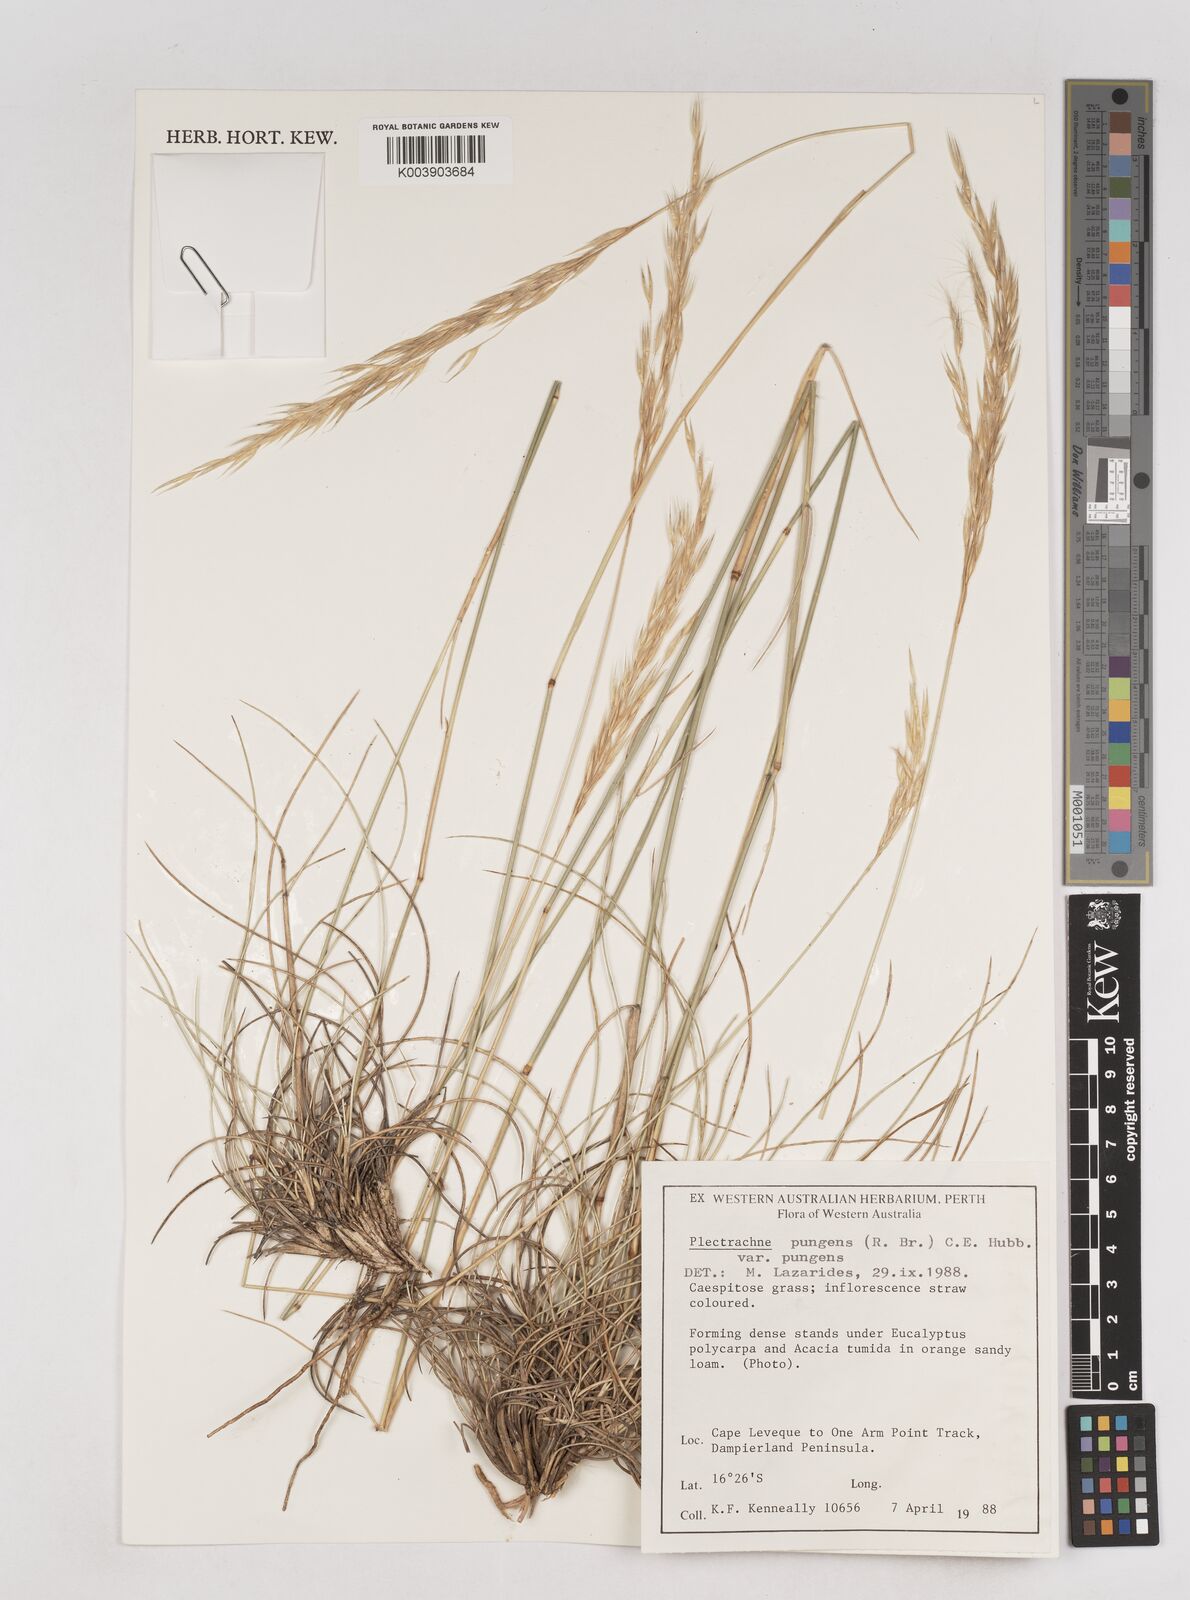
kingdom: Plantae
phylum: Tracheophyta
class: Liliopsida
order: Poales
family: Poaceae
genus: Triodia
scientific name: Triodia bitextura
